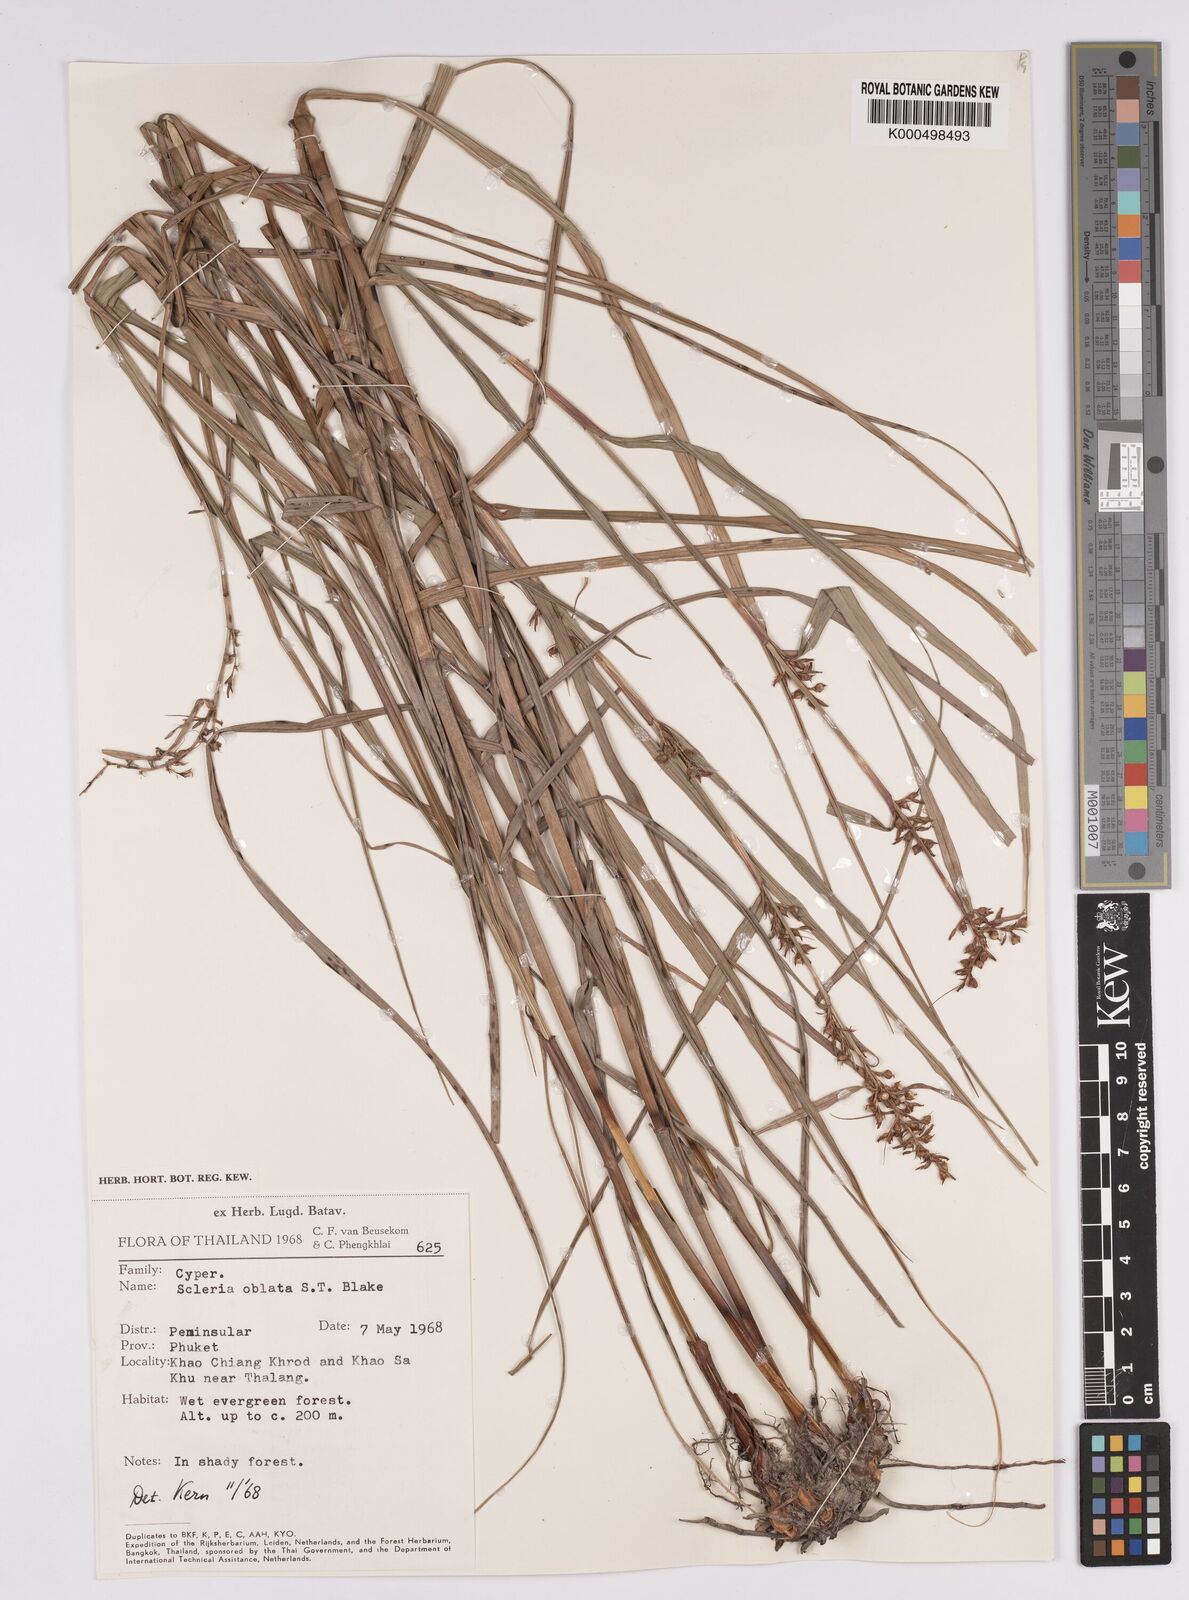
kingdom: Plantae
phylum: Tracheophyta
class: Liliopsida
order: Poales
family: Cyperaceae
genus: Scleria
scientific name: Scleria oblata
